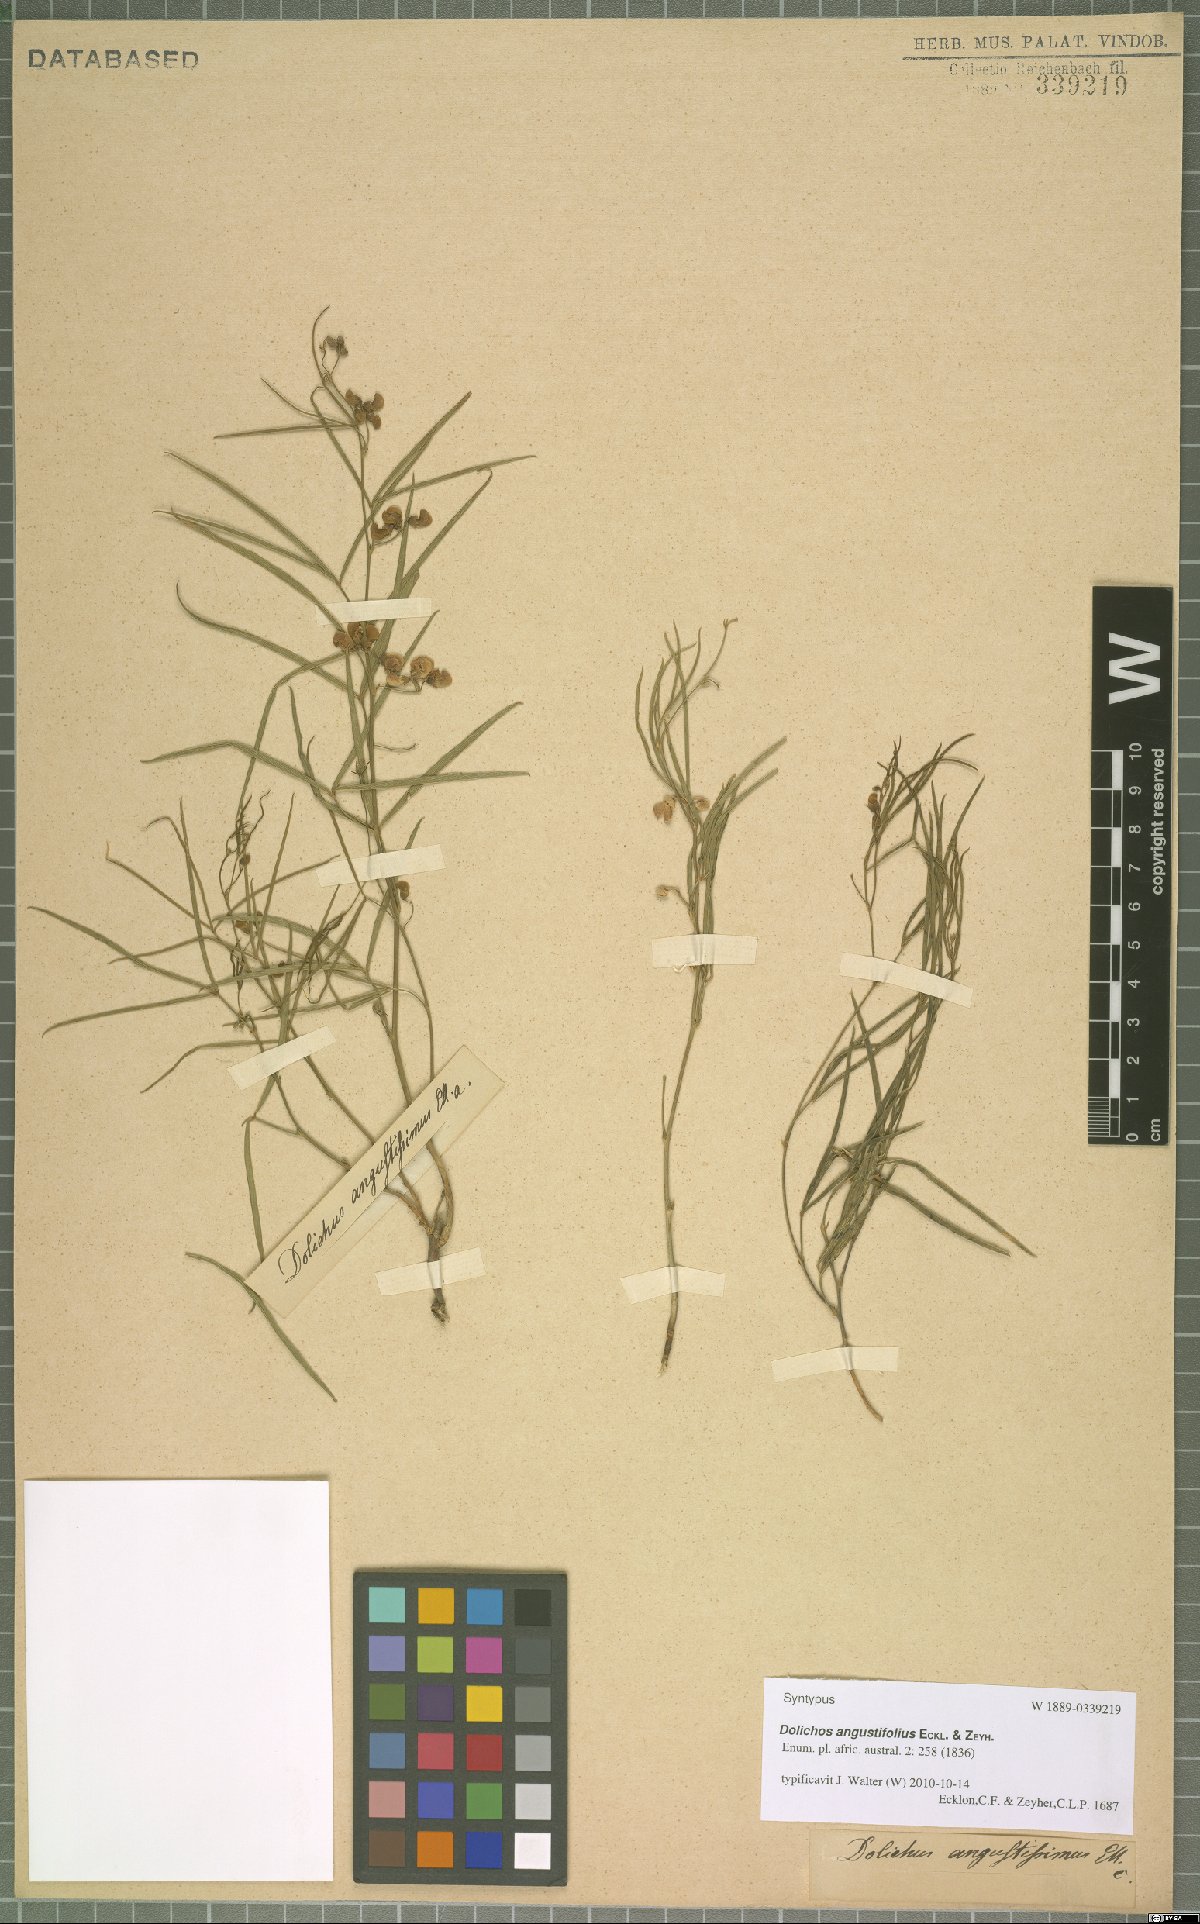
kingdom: Plantae
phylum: Tracheophyta
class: Magnoliopsida
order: Fabales
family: Fabaceae
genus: Dolichos
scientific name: Dolichos angustifolius
